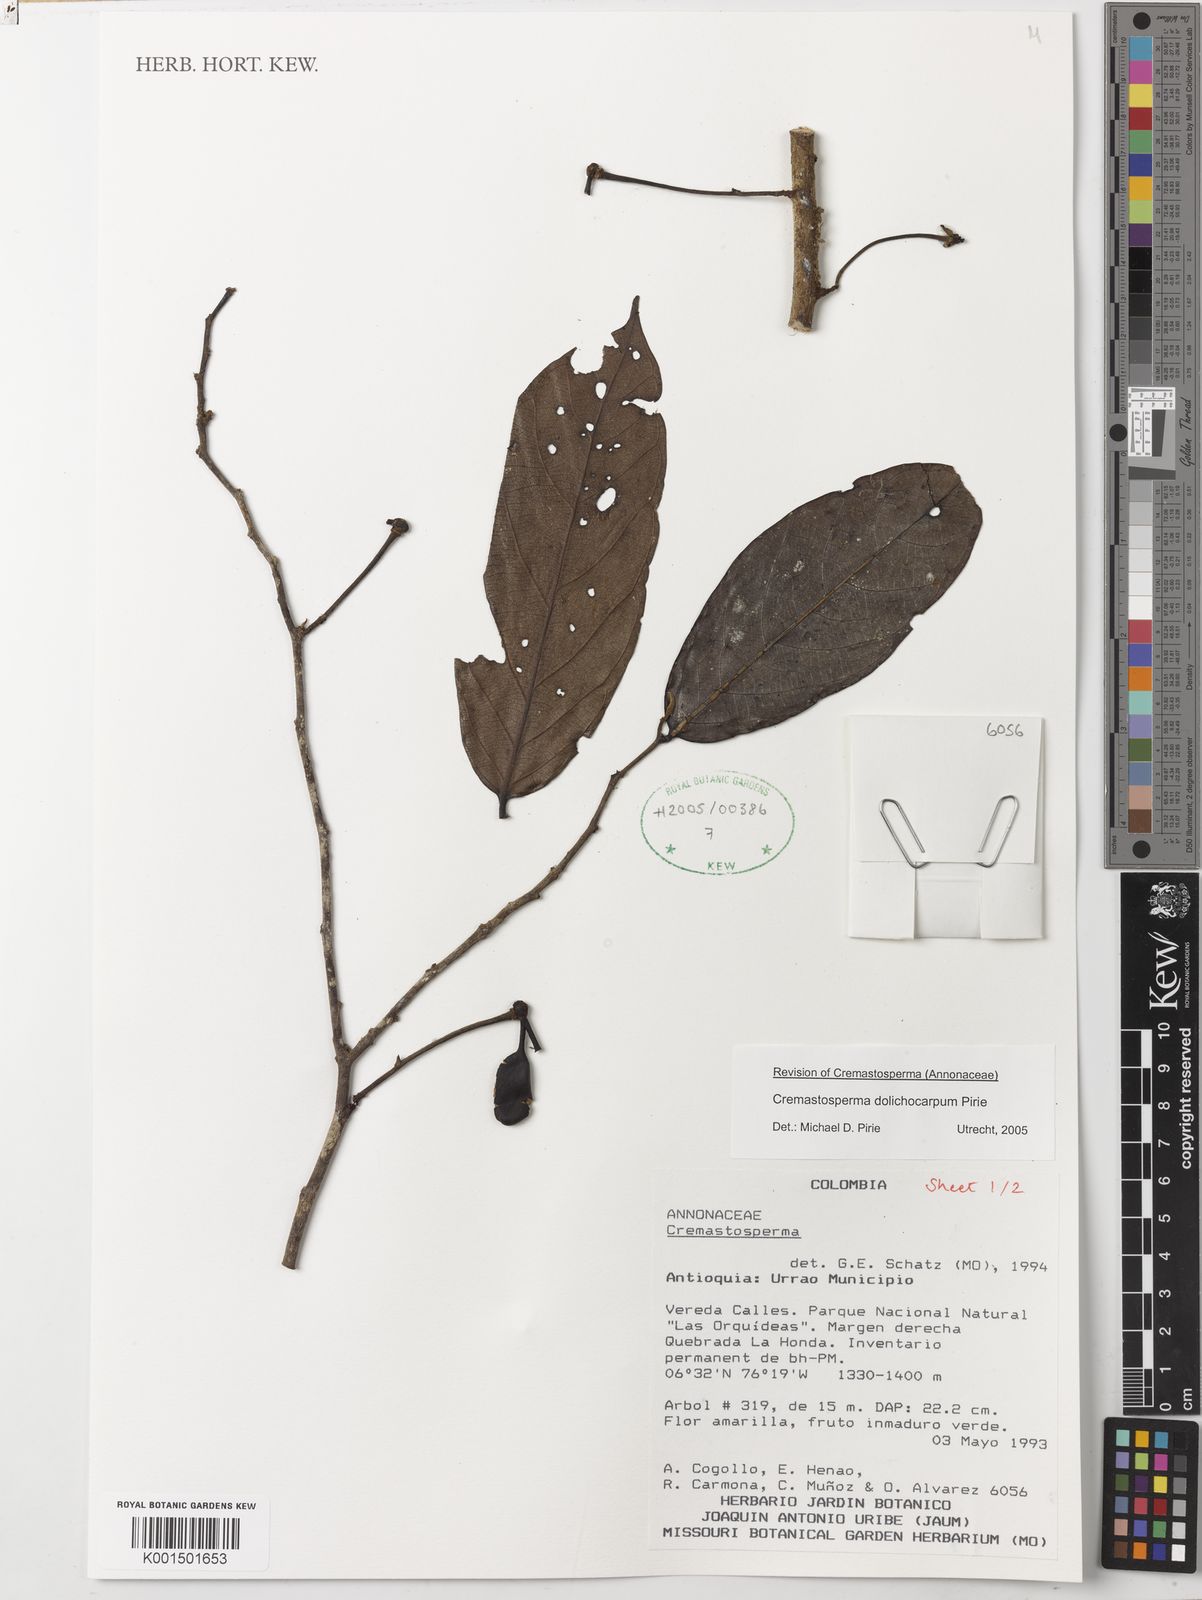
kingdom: Plantae
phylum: Tracheophyta
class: Magnoliopsida
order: Magnoliales
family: Annonaceae
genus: Cremastosperma
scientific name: Cremastosperma dolichocarpum
